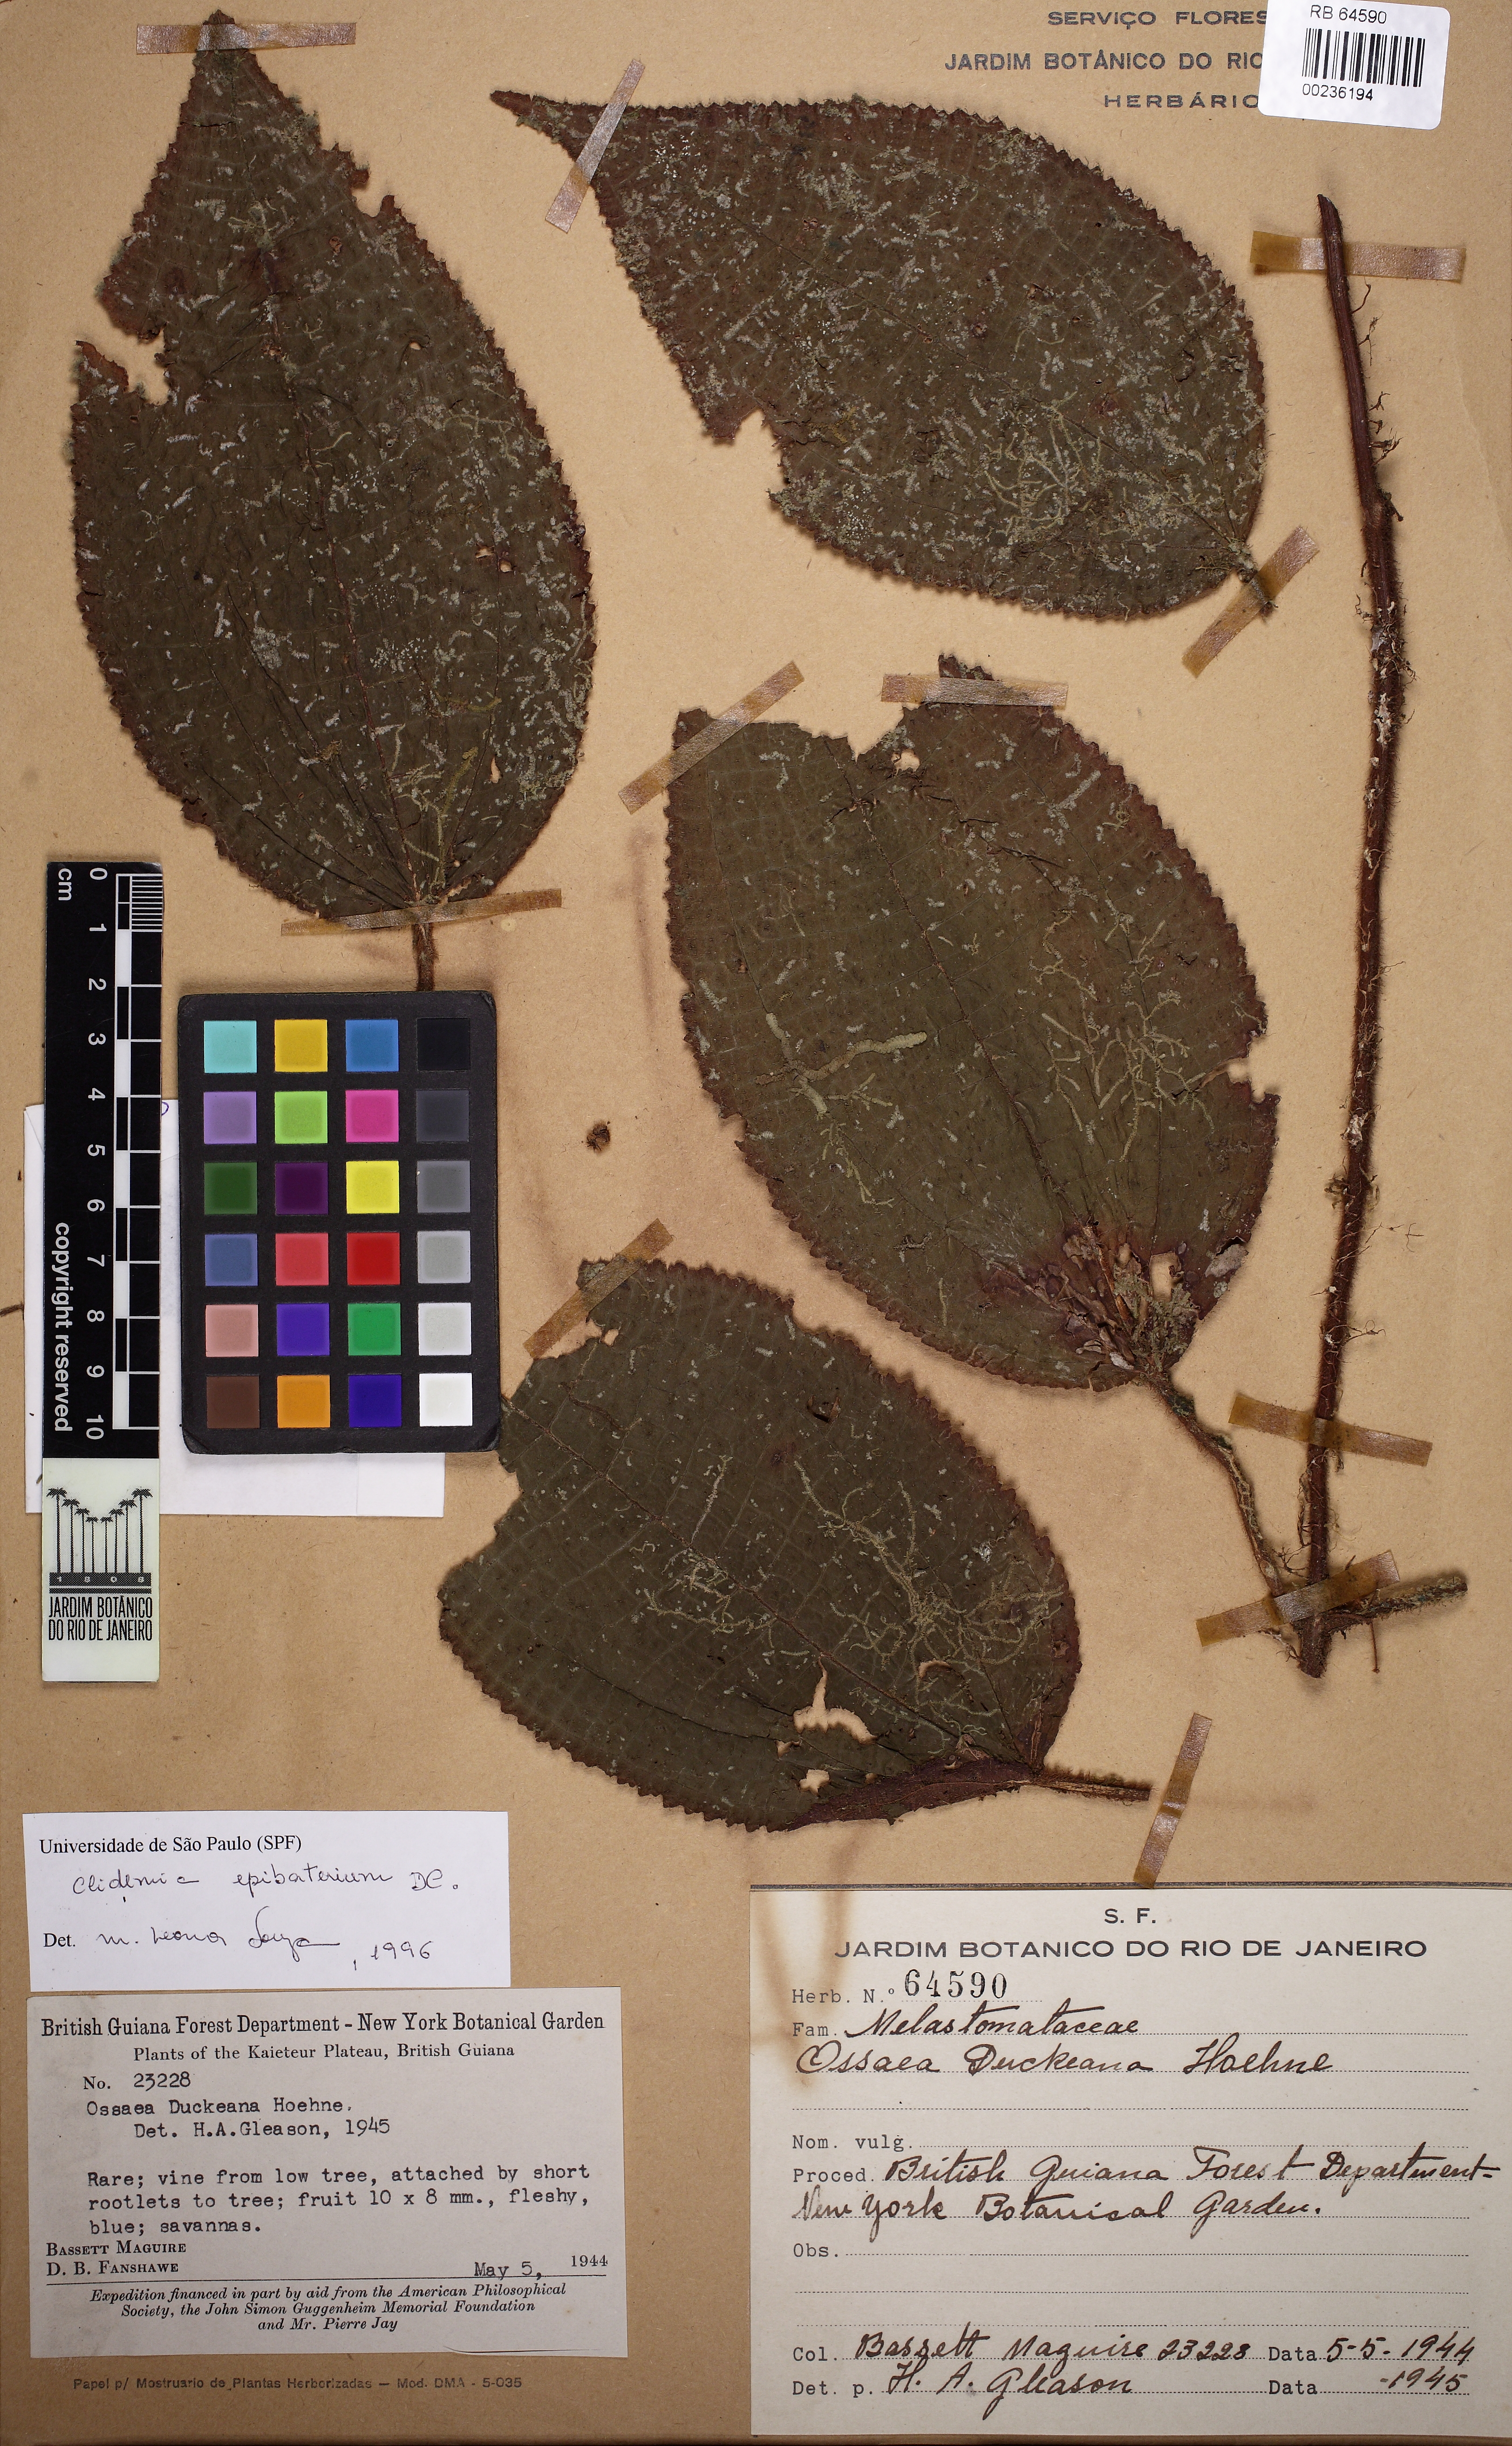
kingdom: Plantae
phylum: Tracheophyta
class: Magnoliopsida
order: Myrtales
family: Melastomataceae
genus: Miconia
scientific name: Miconia epibaterium
